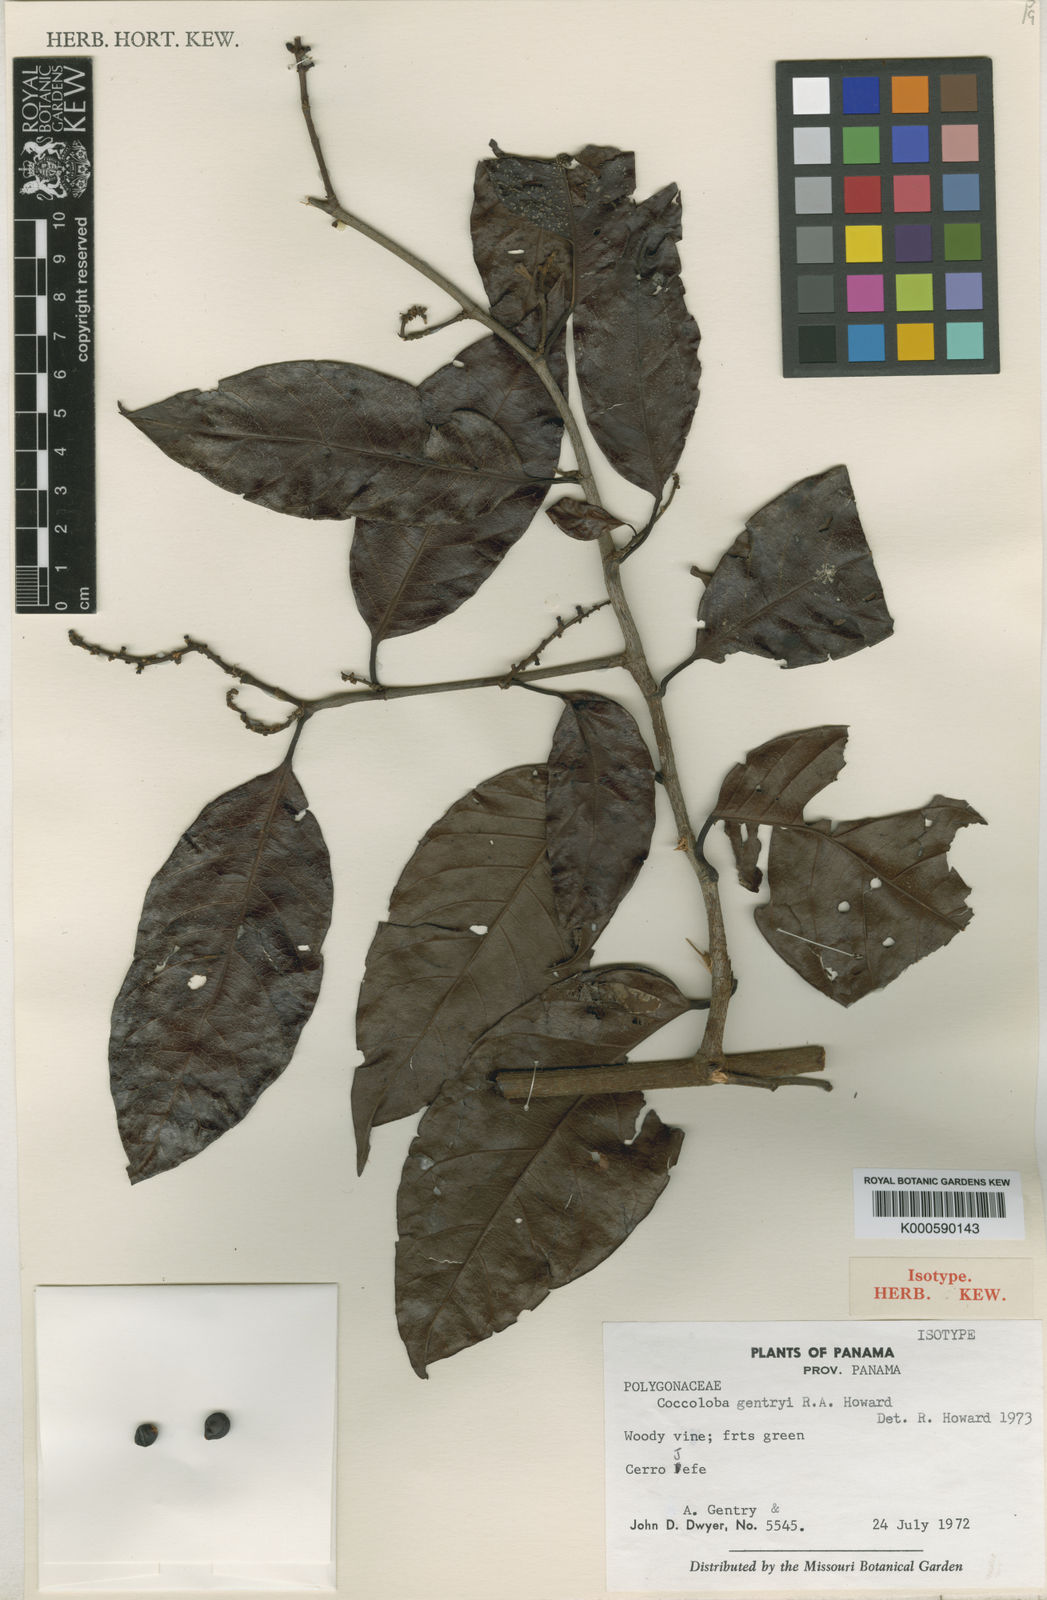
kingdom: Plantae
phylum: Tracheophyta
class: Magnoliopsida
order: Caryophyllales
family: Polygonaceae
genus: Coccoloba
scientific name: Coccoloba gentryi
